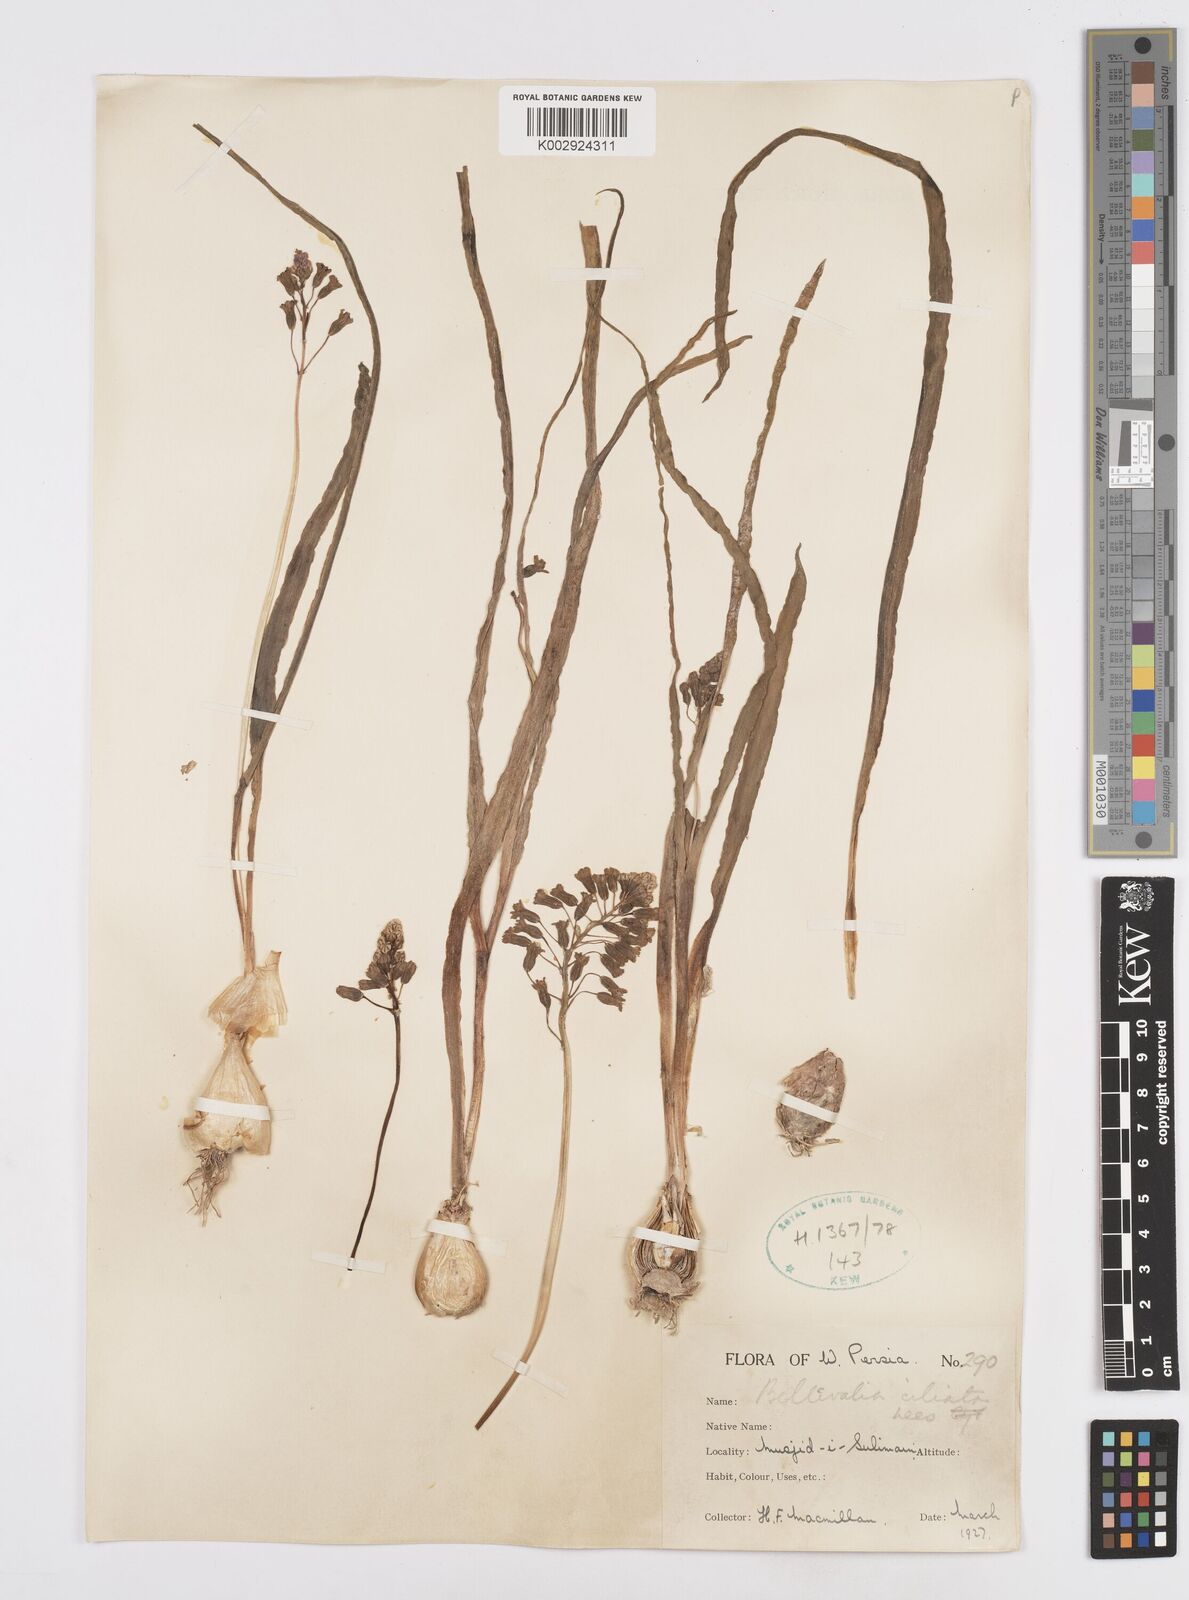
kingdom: Plantae
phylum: Tracheophyta
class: Liliopsida
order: Asparagales
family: Asparagaceae
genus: Bellevalia
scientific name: Bellevalia ciliata
